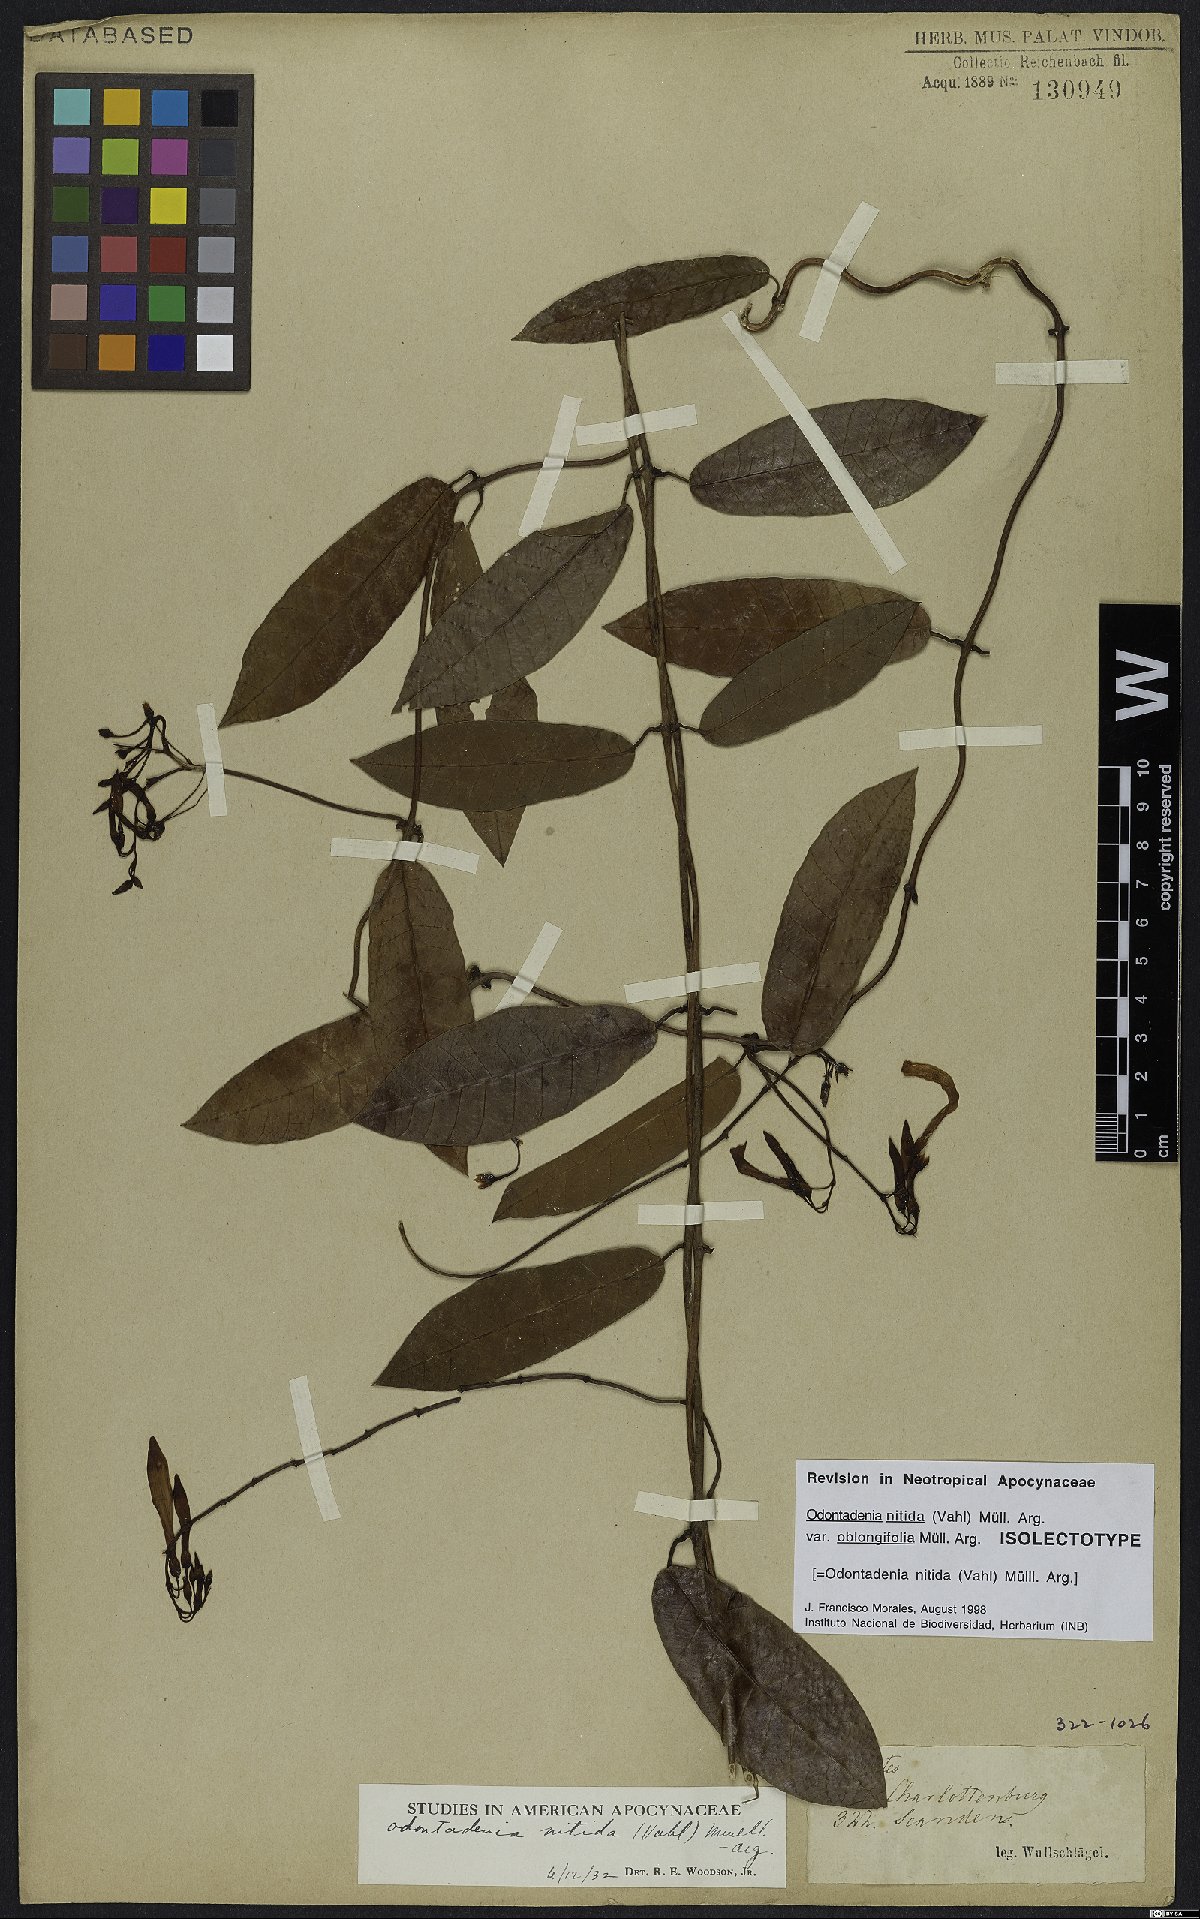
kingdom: Plantae
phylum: Tracheophyta
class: Magnoliopsida
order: Gentianales
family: Apocynaceae
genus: Odontadenia
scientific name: Odontadenia nitida
